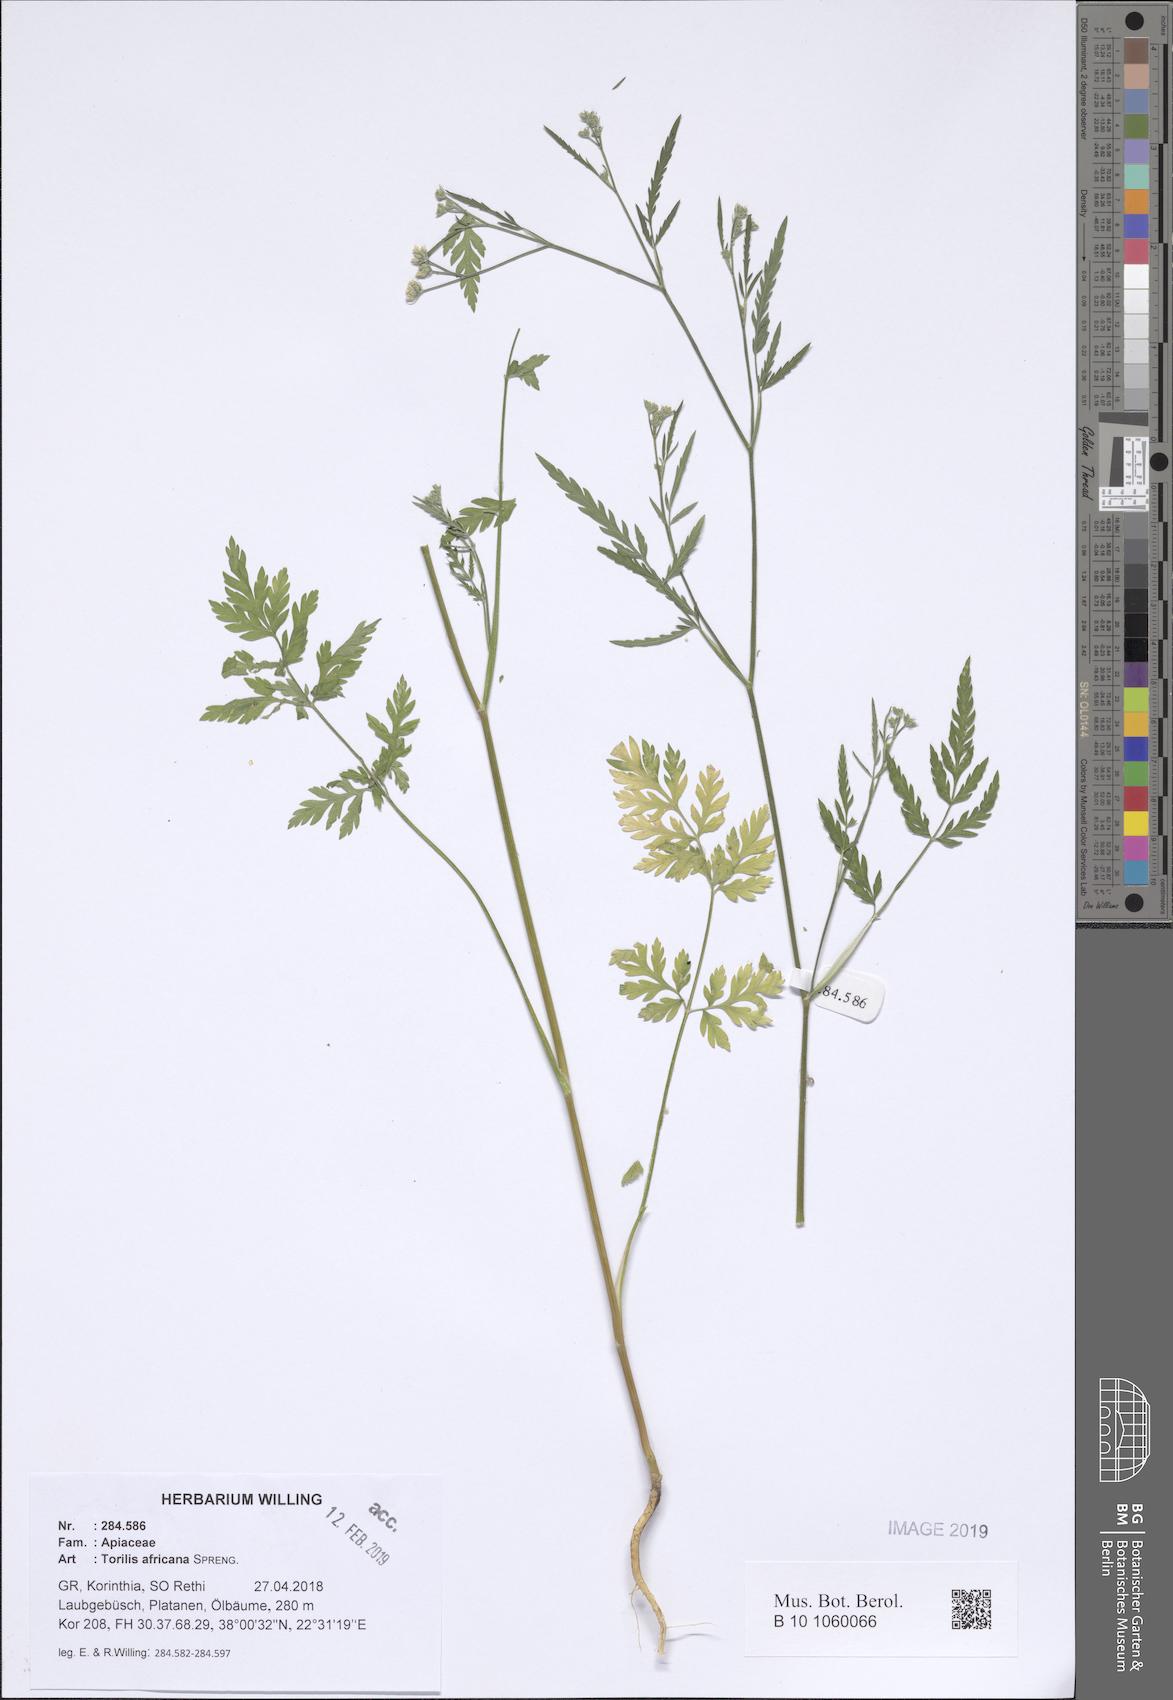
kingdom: Plantae
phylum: Tracheophyta
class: Magnoliopsida
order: Apiales
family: Apiaceae
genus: Torilis
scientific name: Torilis africana
